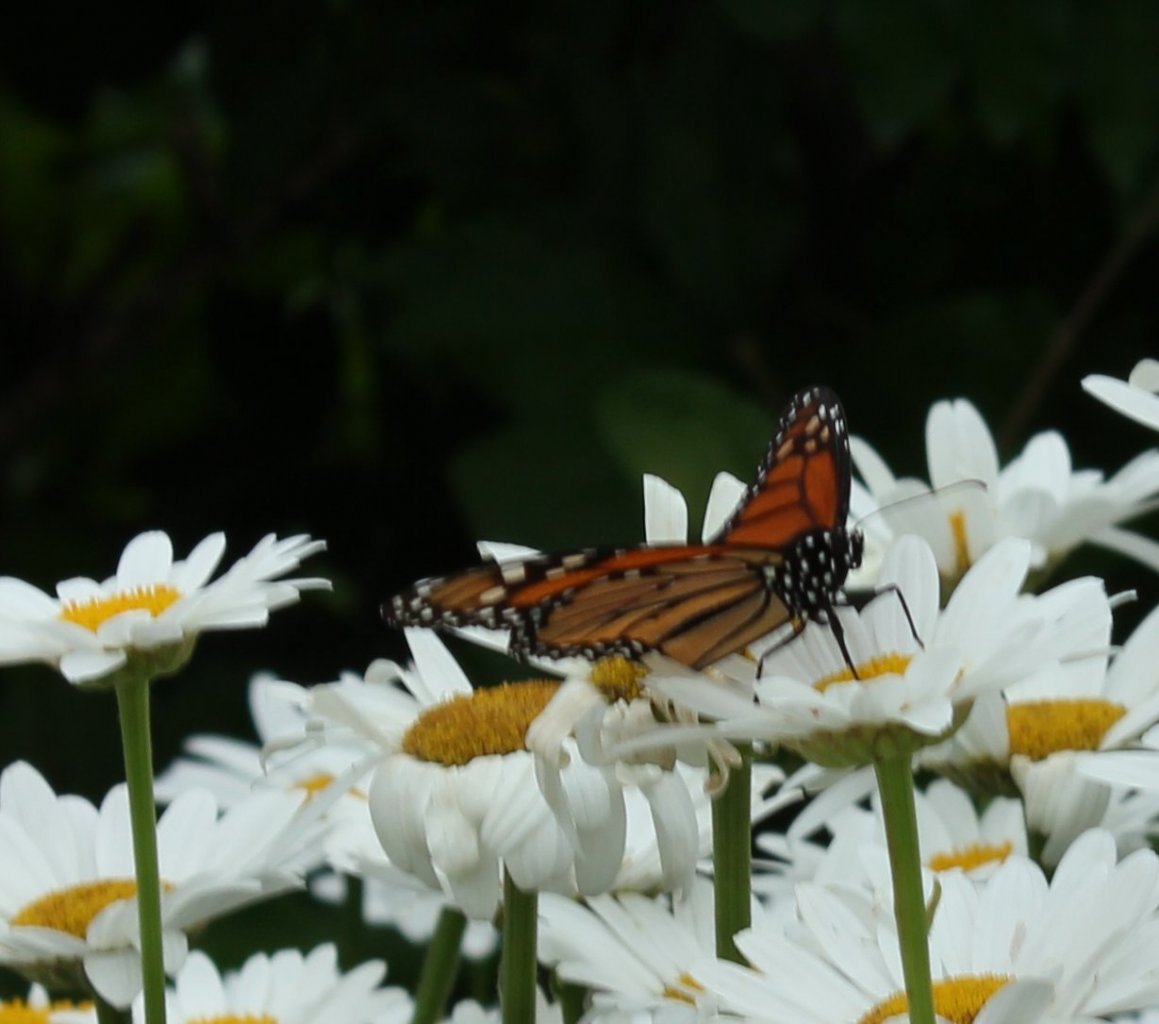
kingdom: Animalia
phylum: Arthropoda
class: Insecta
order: Lepidoptera
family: Nymphalidae
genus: Danaus
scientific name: Danaus plexippus
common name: Monarch
